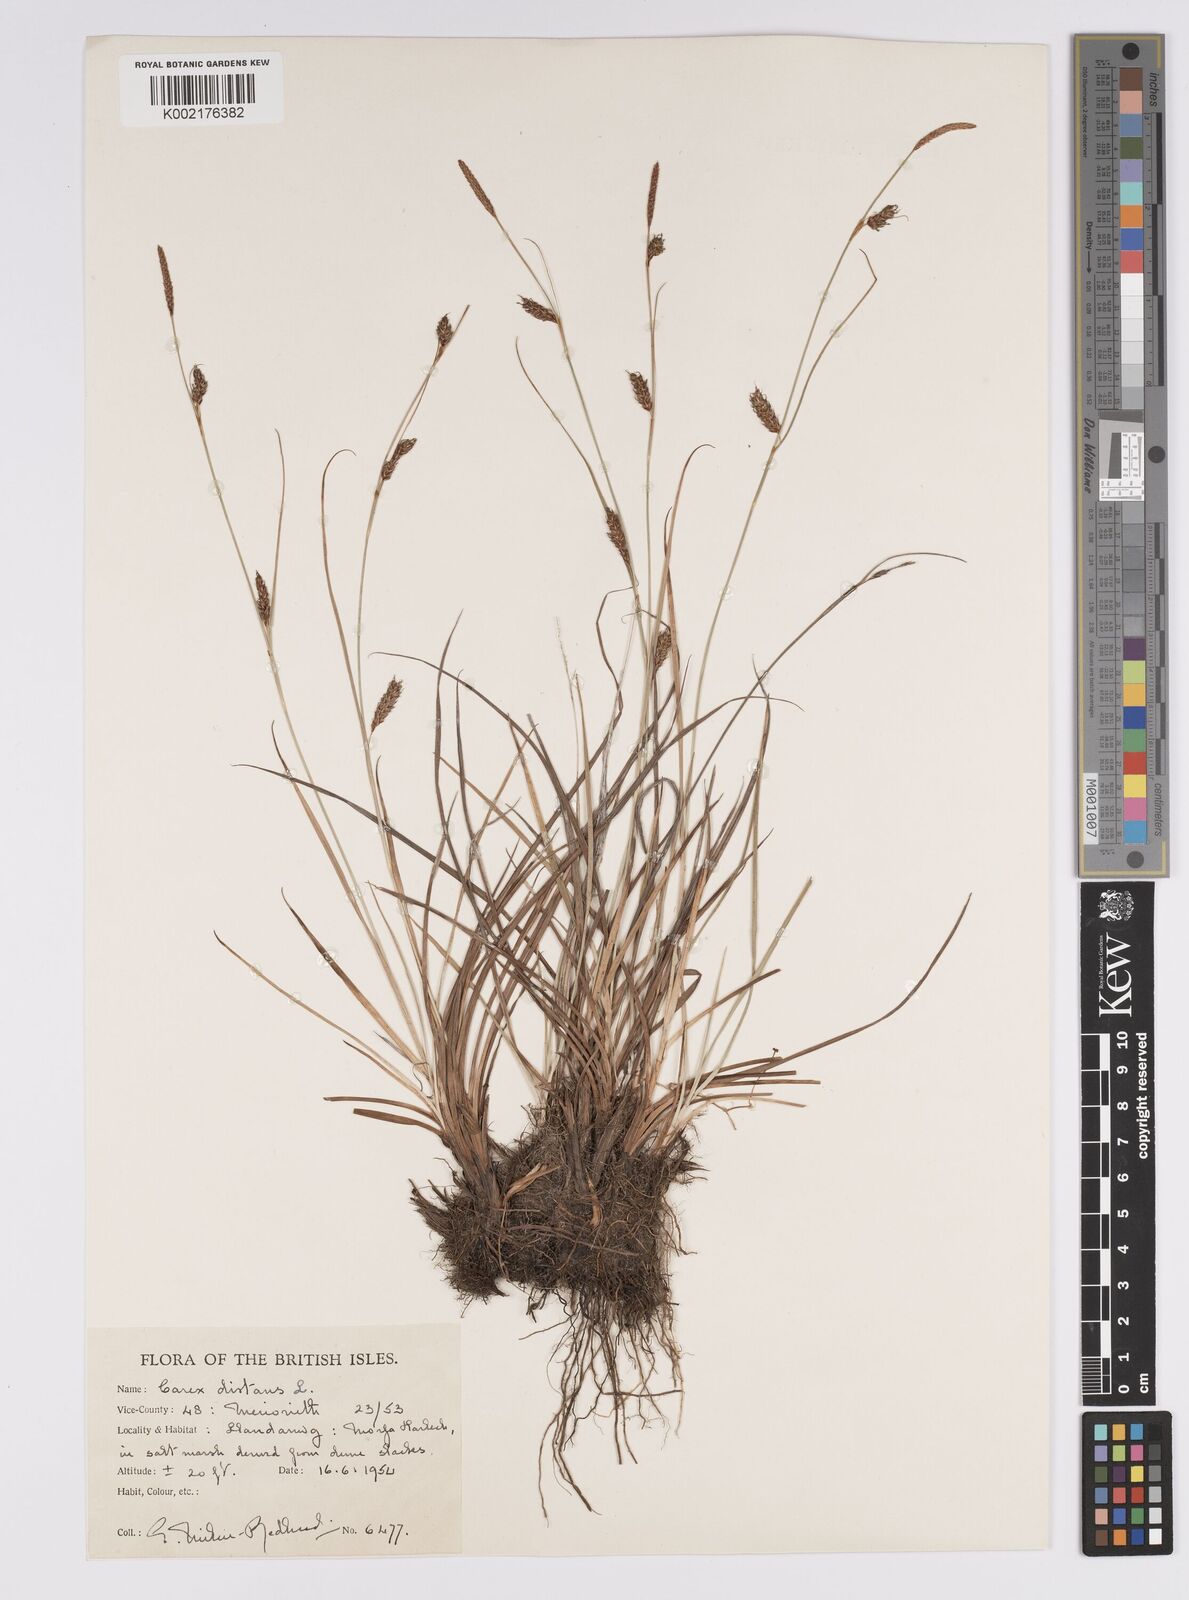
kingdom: Plantae
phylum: Tracheophyta
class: Liliopsida
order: Poales
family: Cyperaceae
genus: Carex
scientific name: Carex distans
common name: Distant sedge
